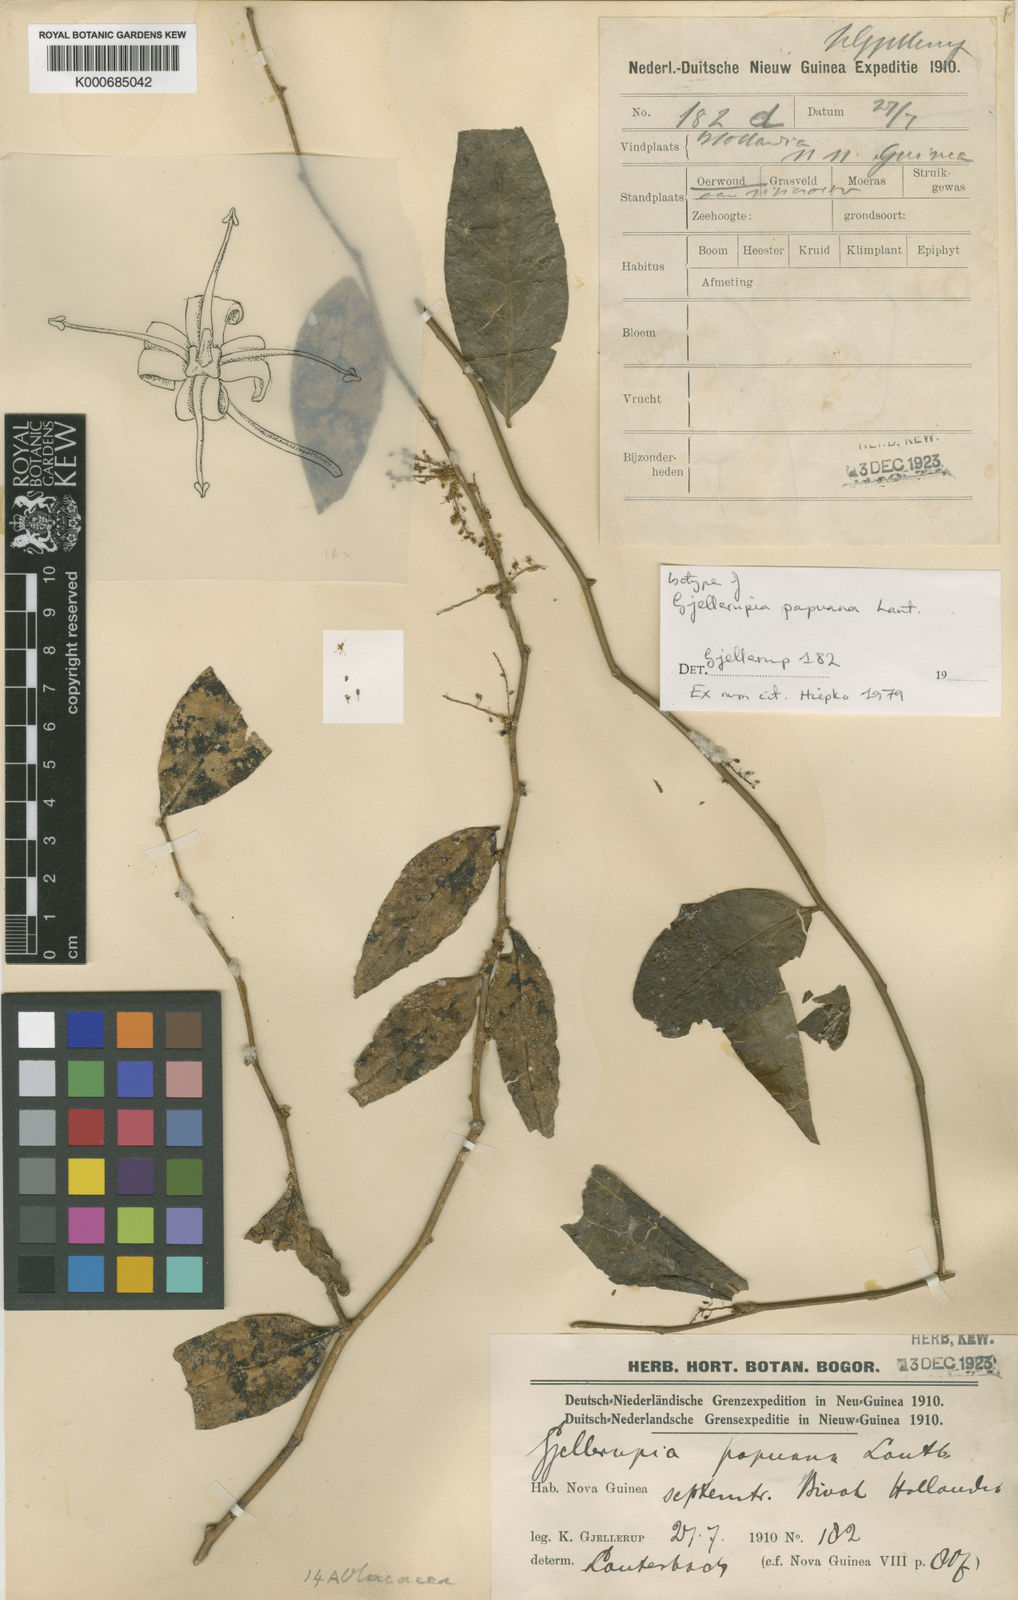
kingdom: Plantae
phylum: Tracheophyta
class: Magnoliopsida
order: Santalales
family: Opiliaceae
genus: Gjellerupia
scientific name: Gjellerupia papuana
